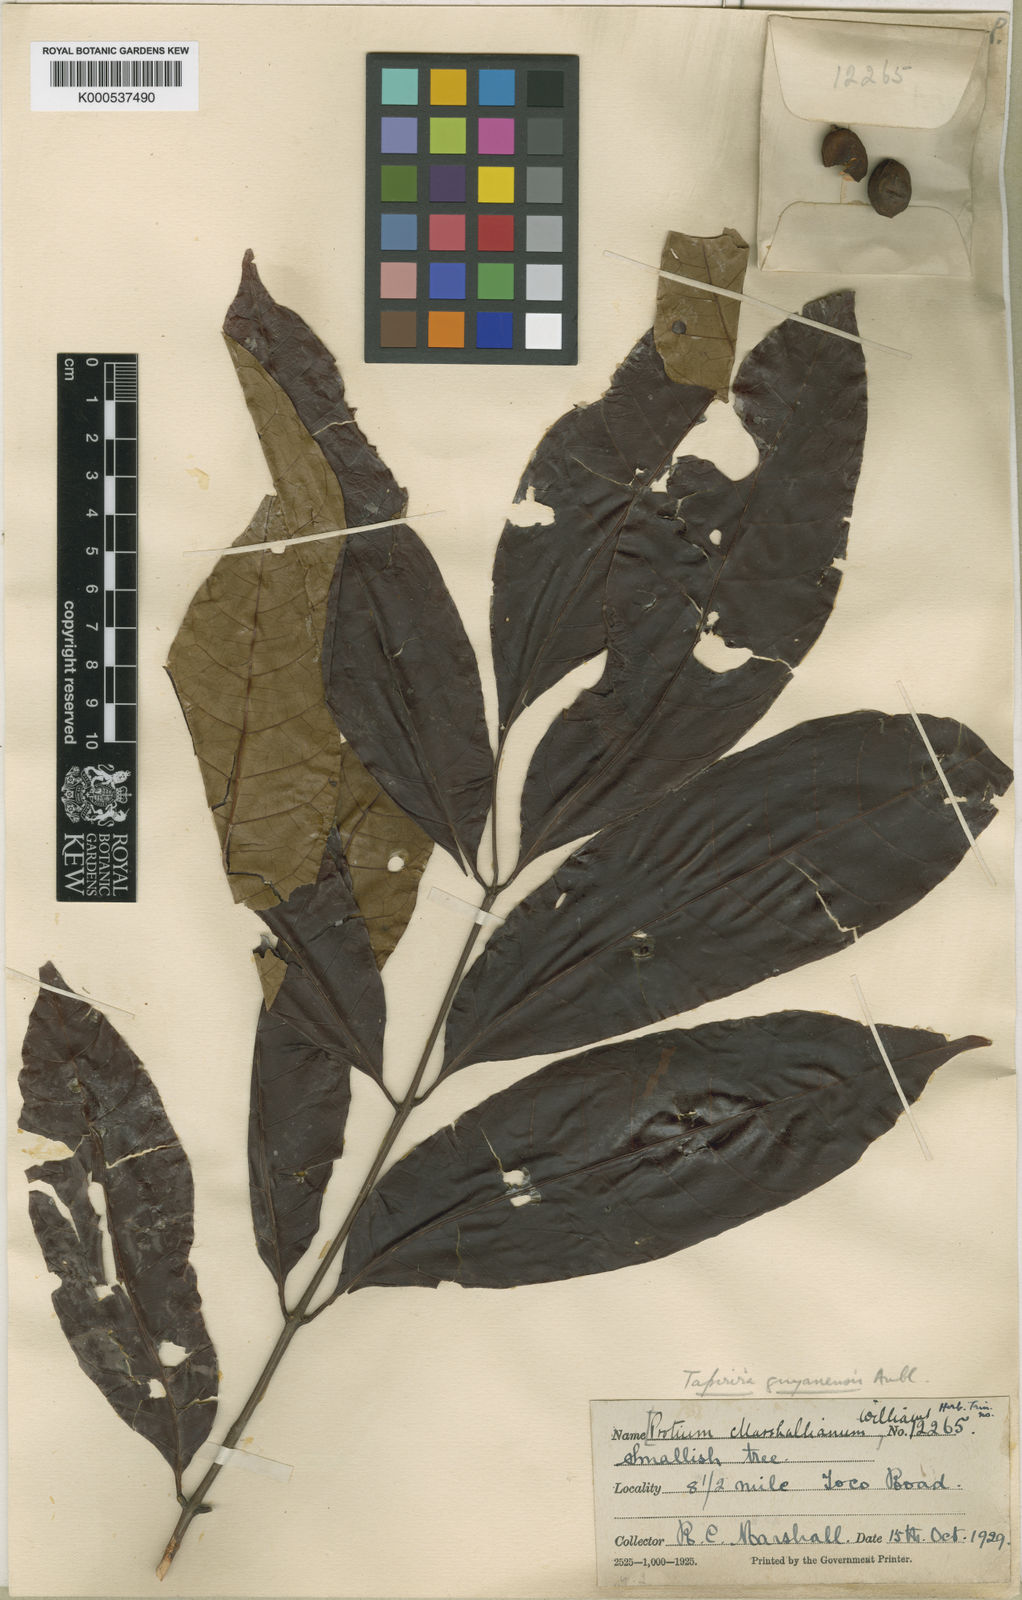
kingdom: Plantae
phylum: Tracheophyta
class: Magnoliopsida
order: Sapindales
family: Anacardiaceae
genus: Tapirira
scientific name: Tapirira guianensis
